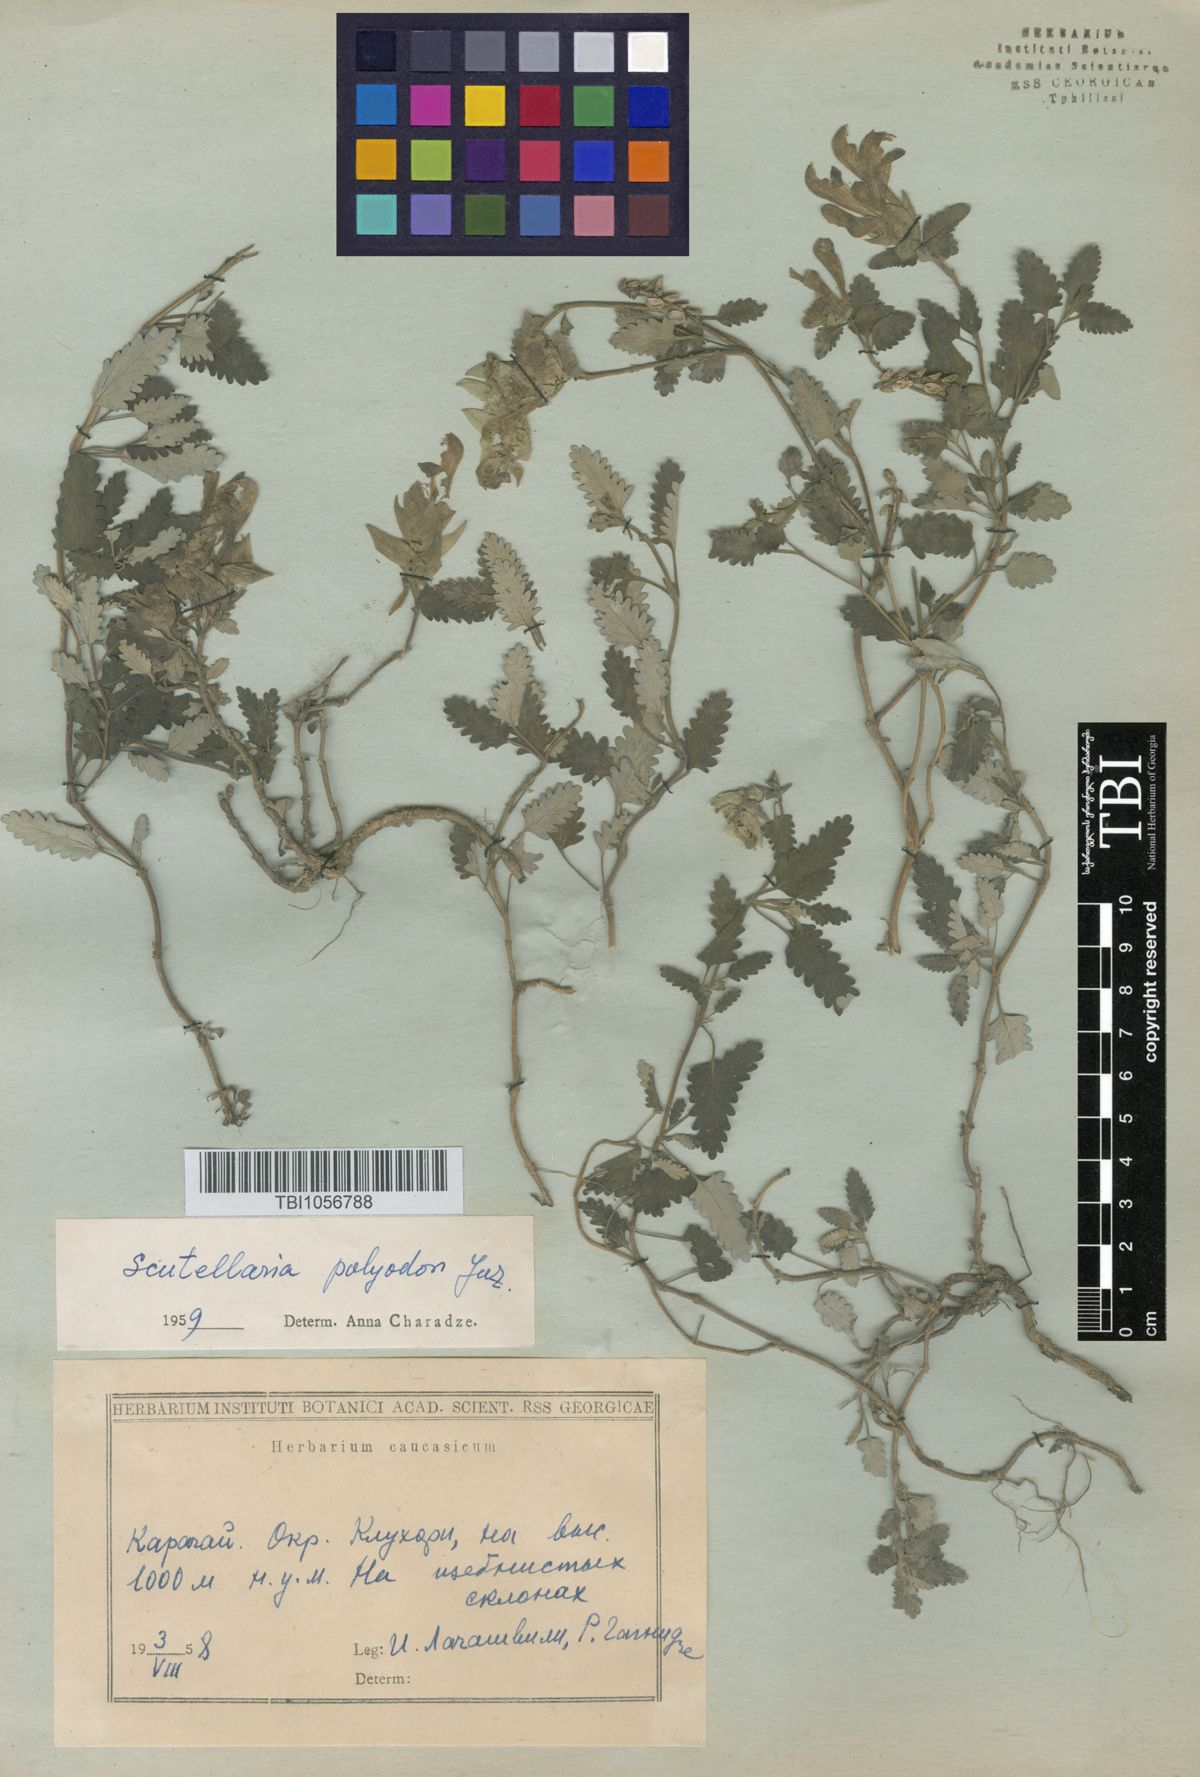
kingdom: Plantae
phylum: Tracheophyta
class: Magnoliopsida
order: Lamiales
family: Lamiaceae
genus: Scutellaria
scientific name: Scutellaria caucasica
